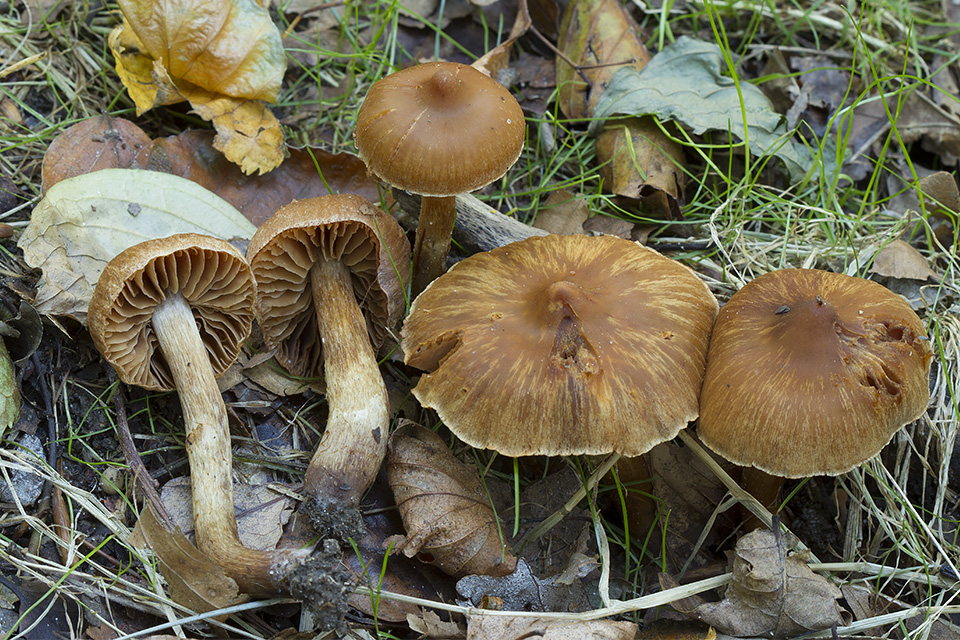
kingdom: Fungi
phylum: Basidiomycota
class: Agaricomycetes
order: Agaricales
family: Cortinariaceae
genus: Cortinarius
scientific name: Cortinarius rubricosus
